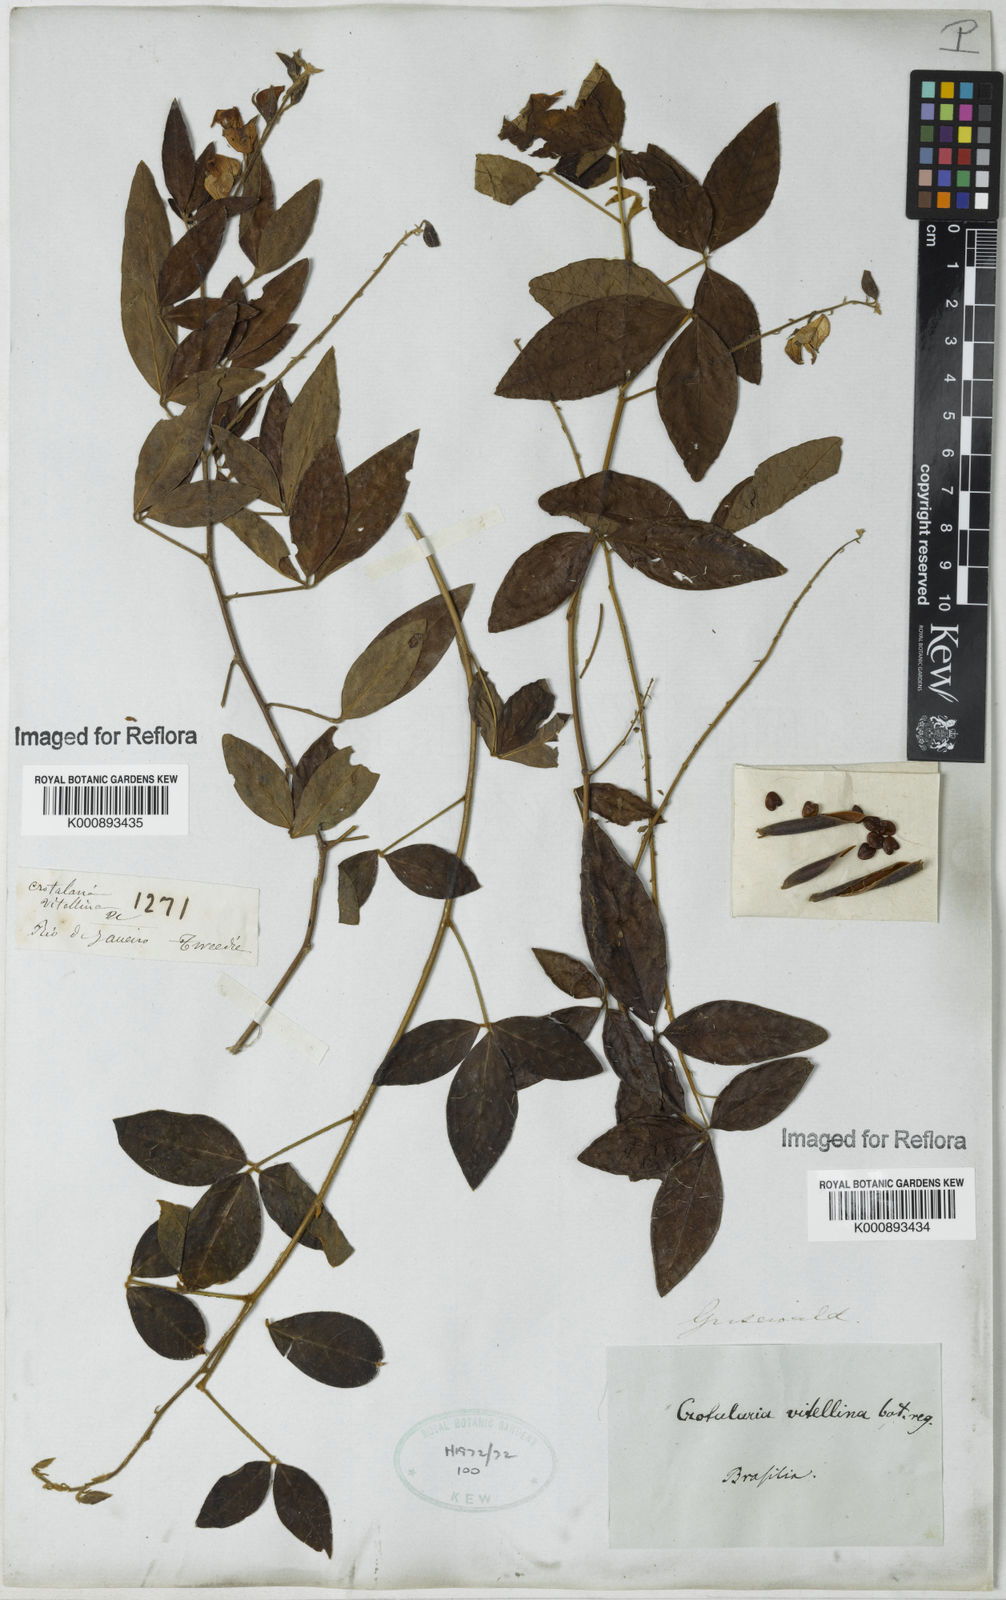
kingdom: Plantae
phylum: Tracheophyta
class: Magnoliopsida
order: Fabales
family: Fabaceae
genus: Crotalaria
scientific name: Crotalaria vitellina
